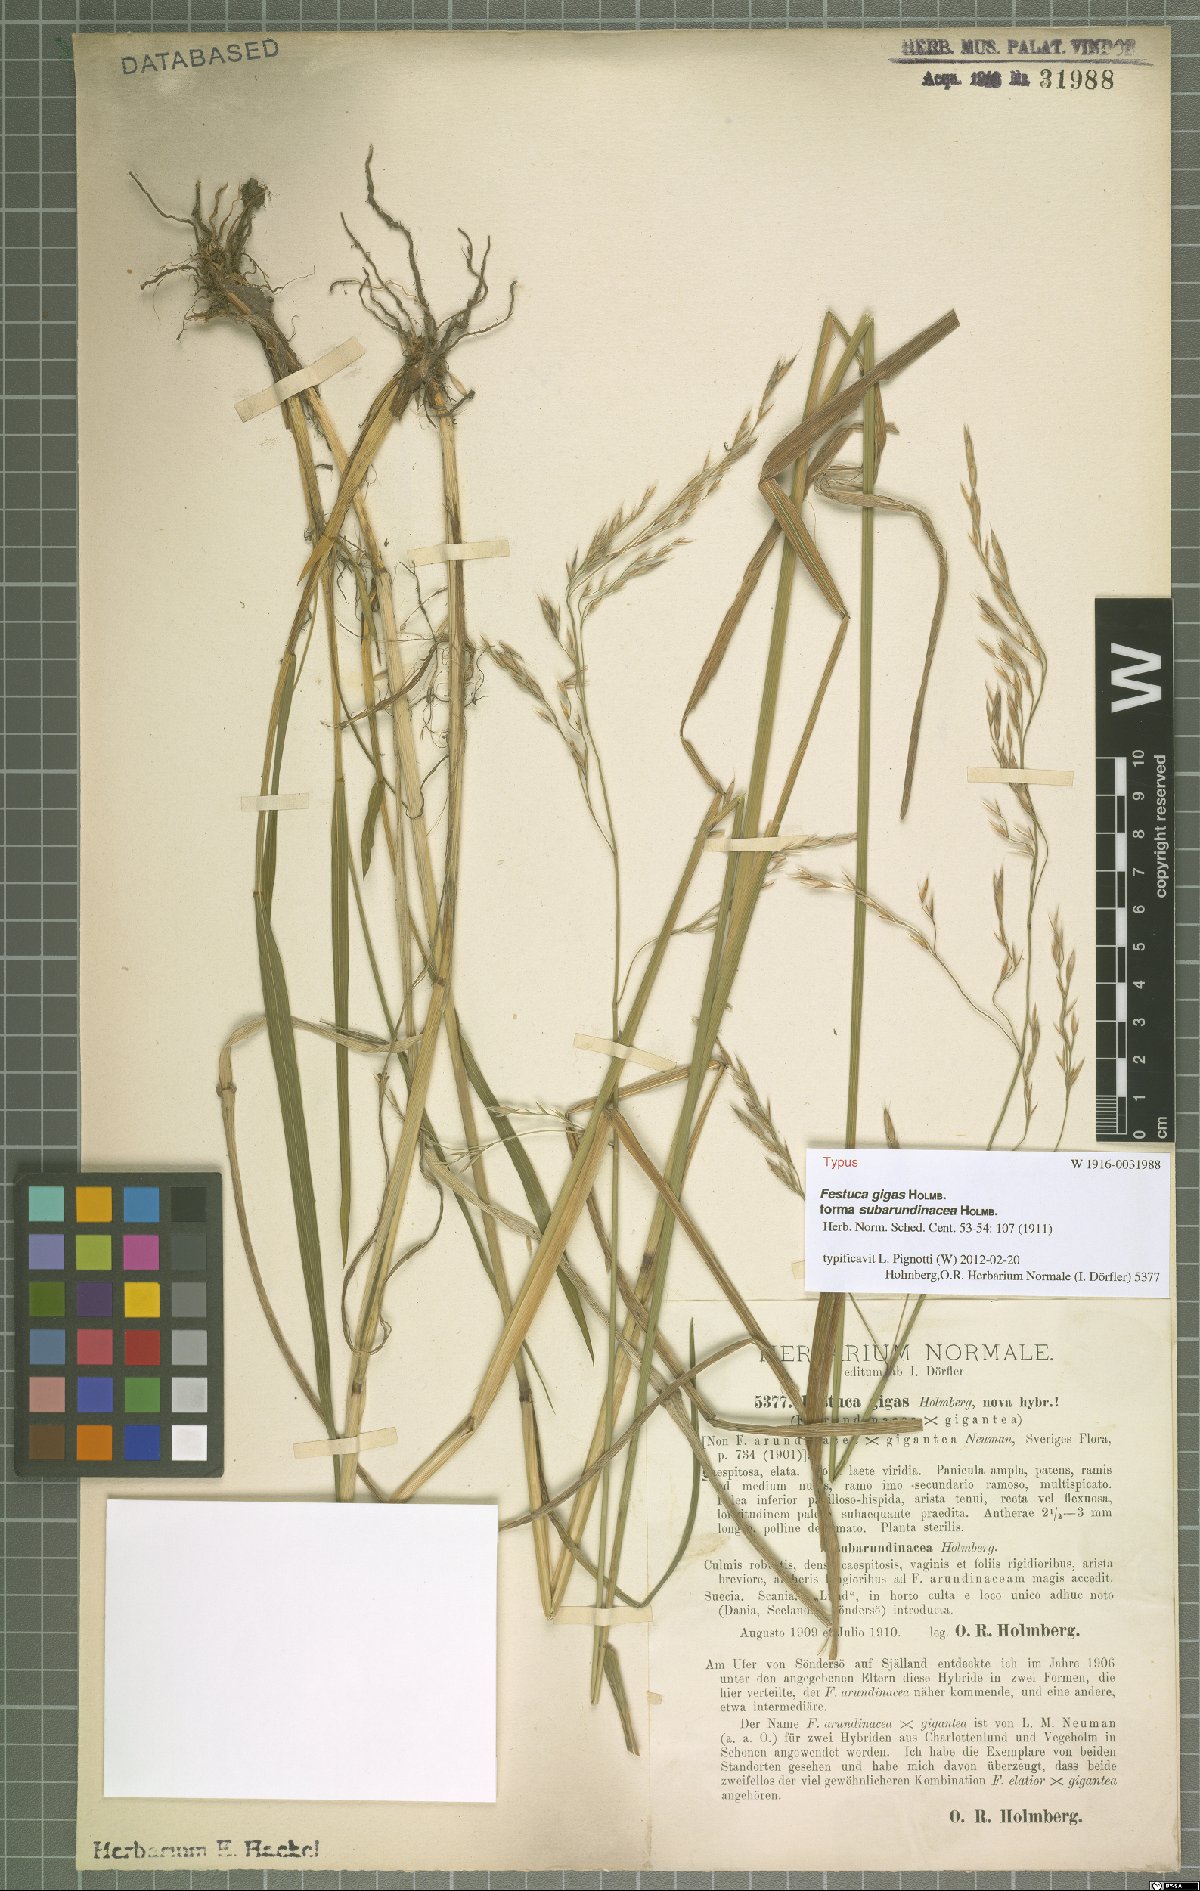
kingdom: Plantae
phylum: Tracheophyta
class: Liliopsida
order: Poales
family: Poaceae
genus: Lolium
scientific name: Lolium fleischeri
